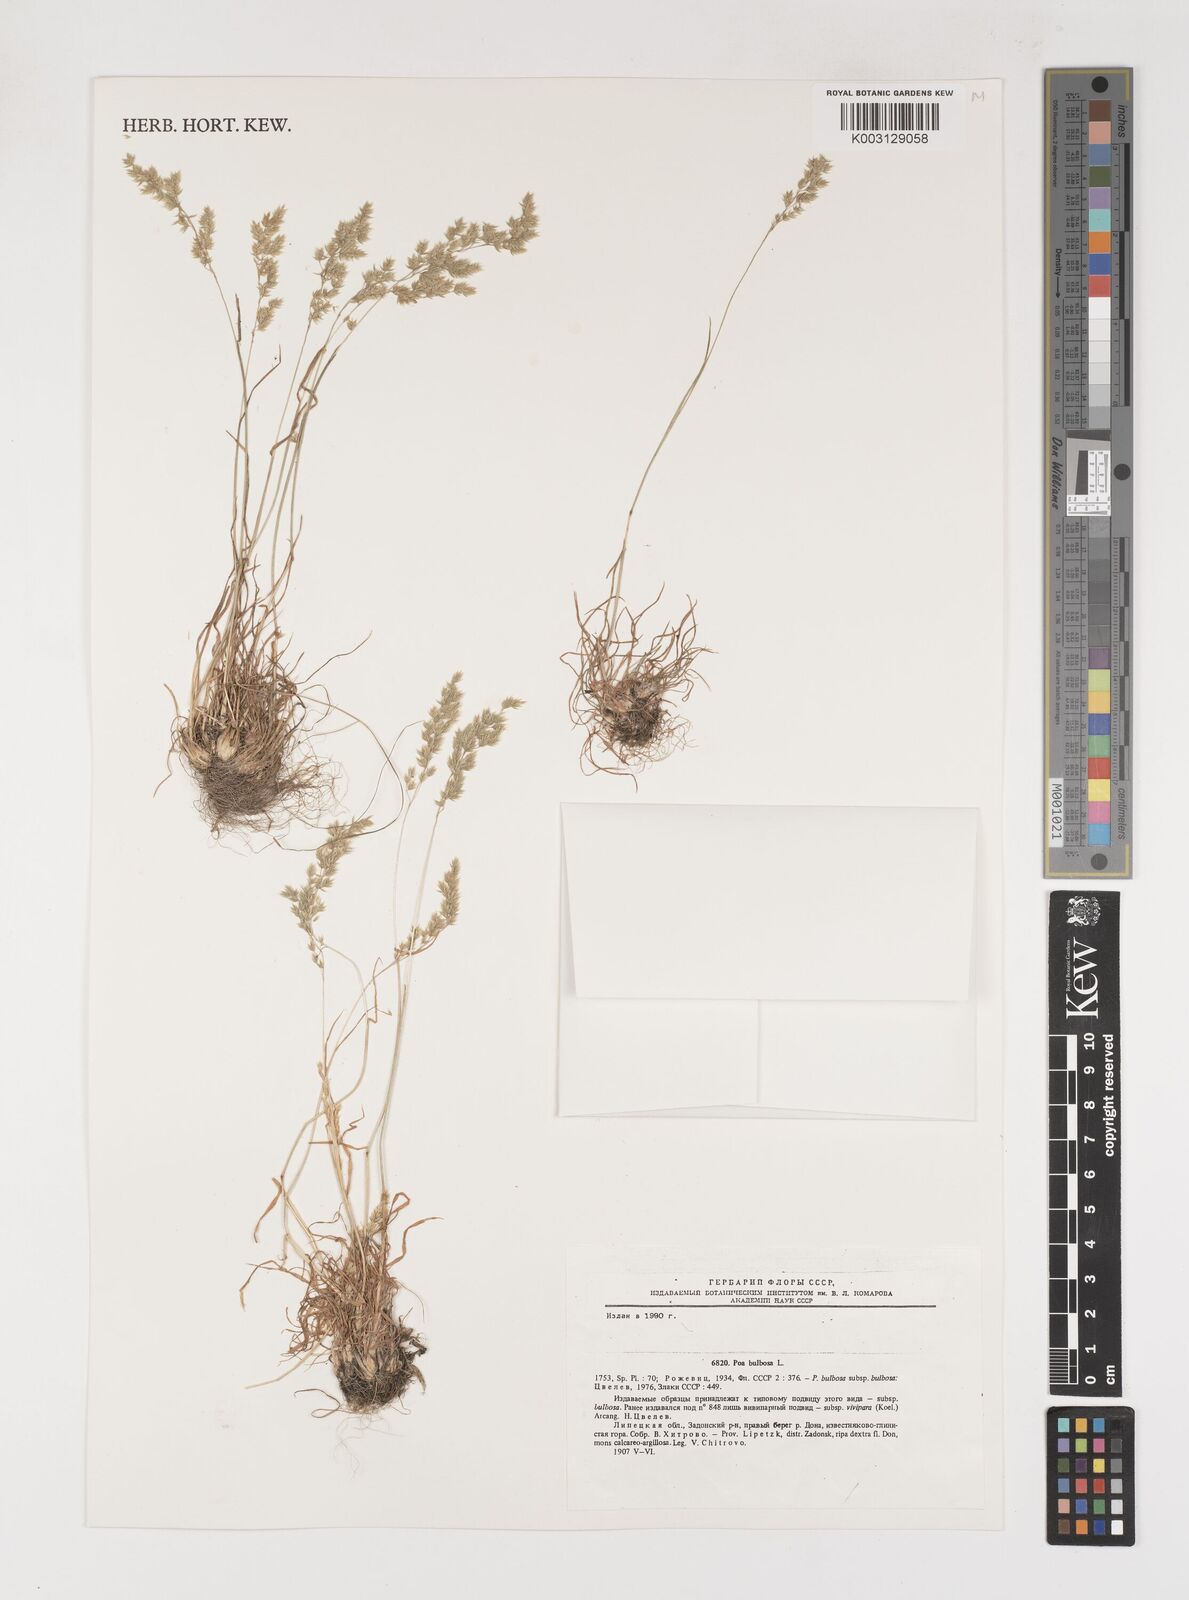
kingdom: Plantae
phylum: Tracheophyta
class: Liliopsida
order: Poales
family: Poaceae
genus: Poa
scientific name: Poa
